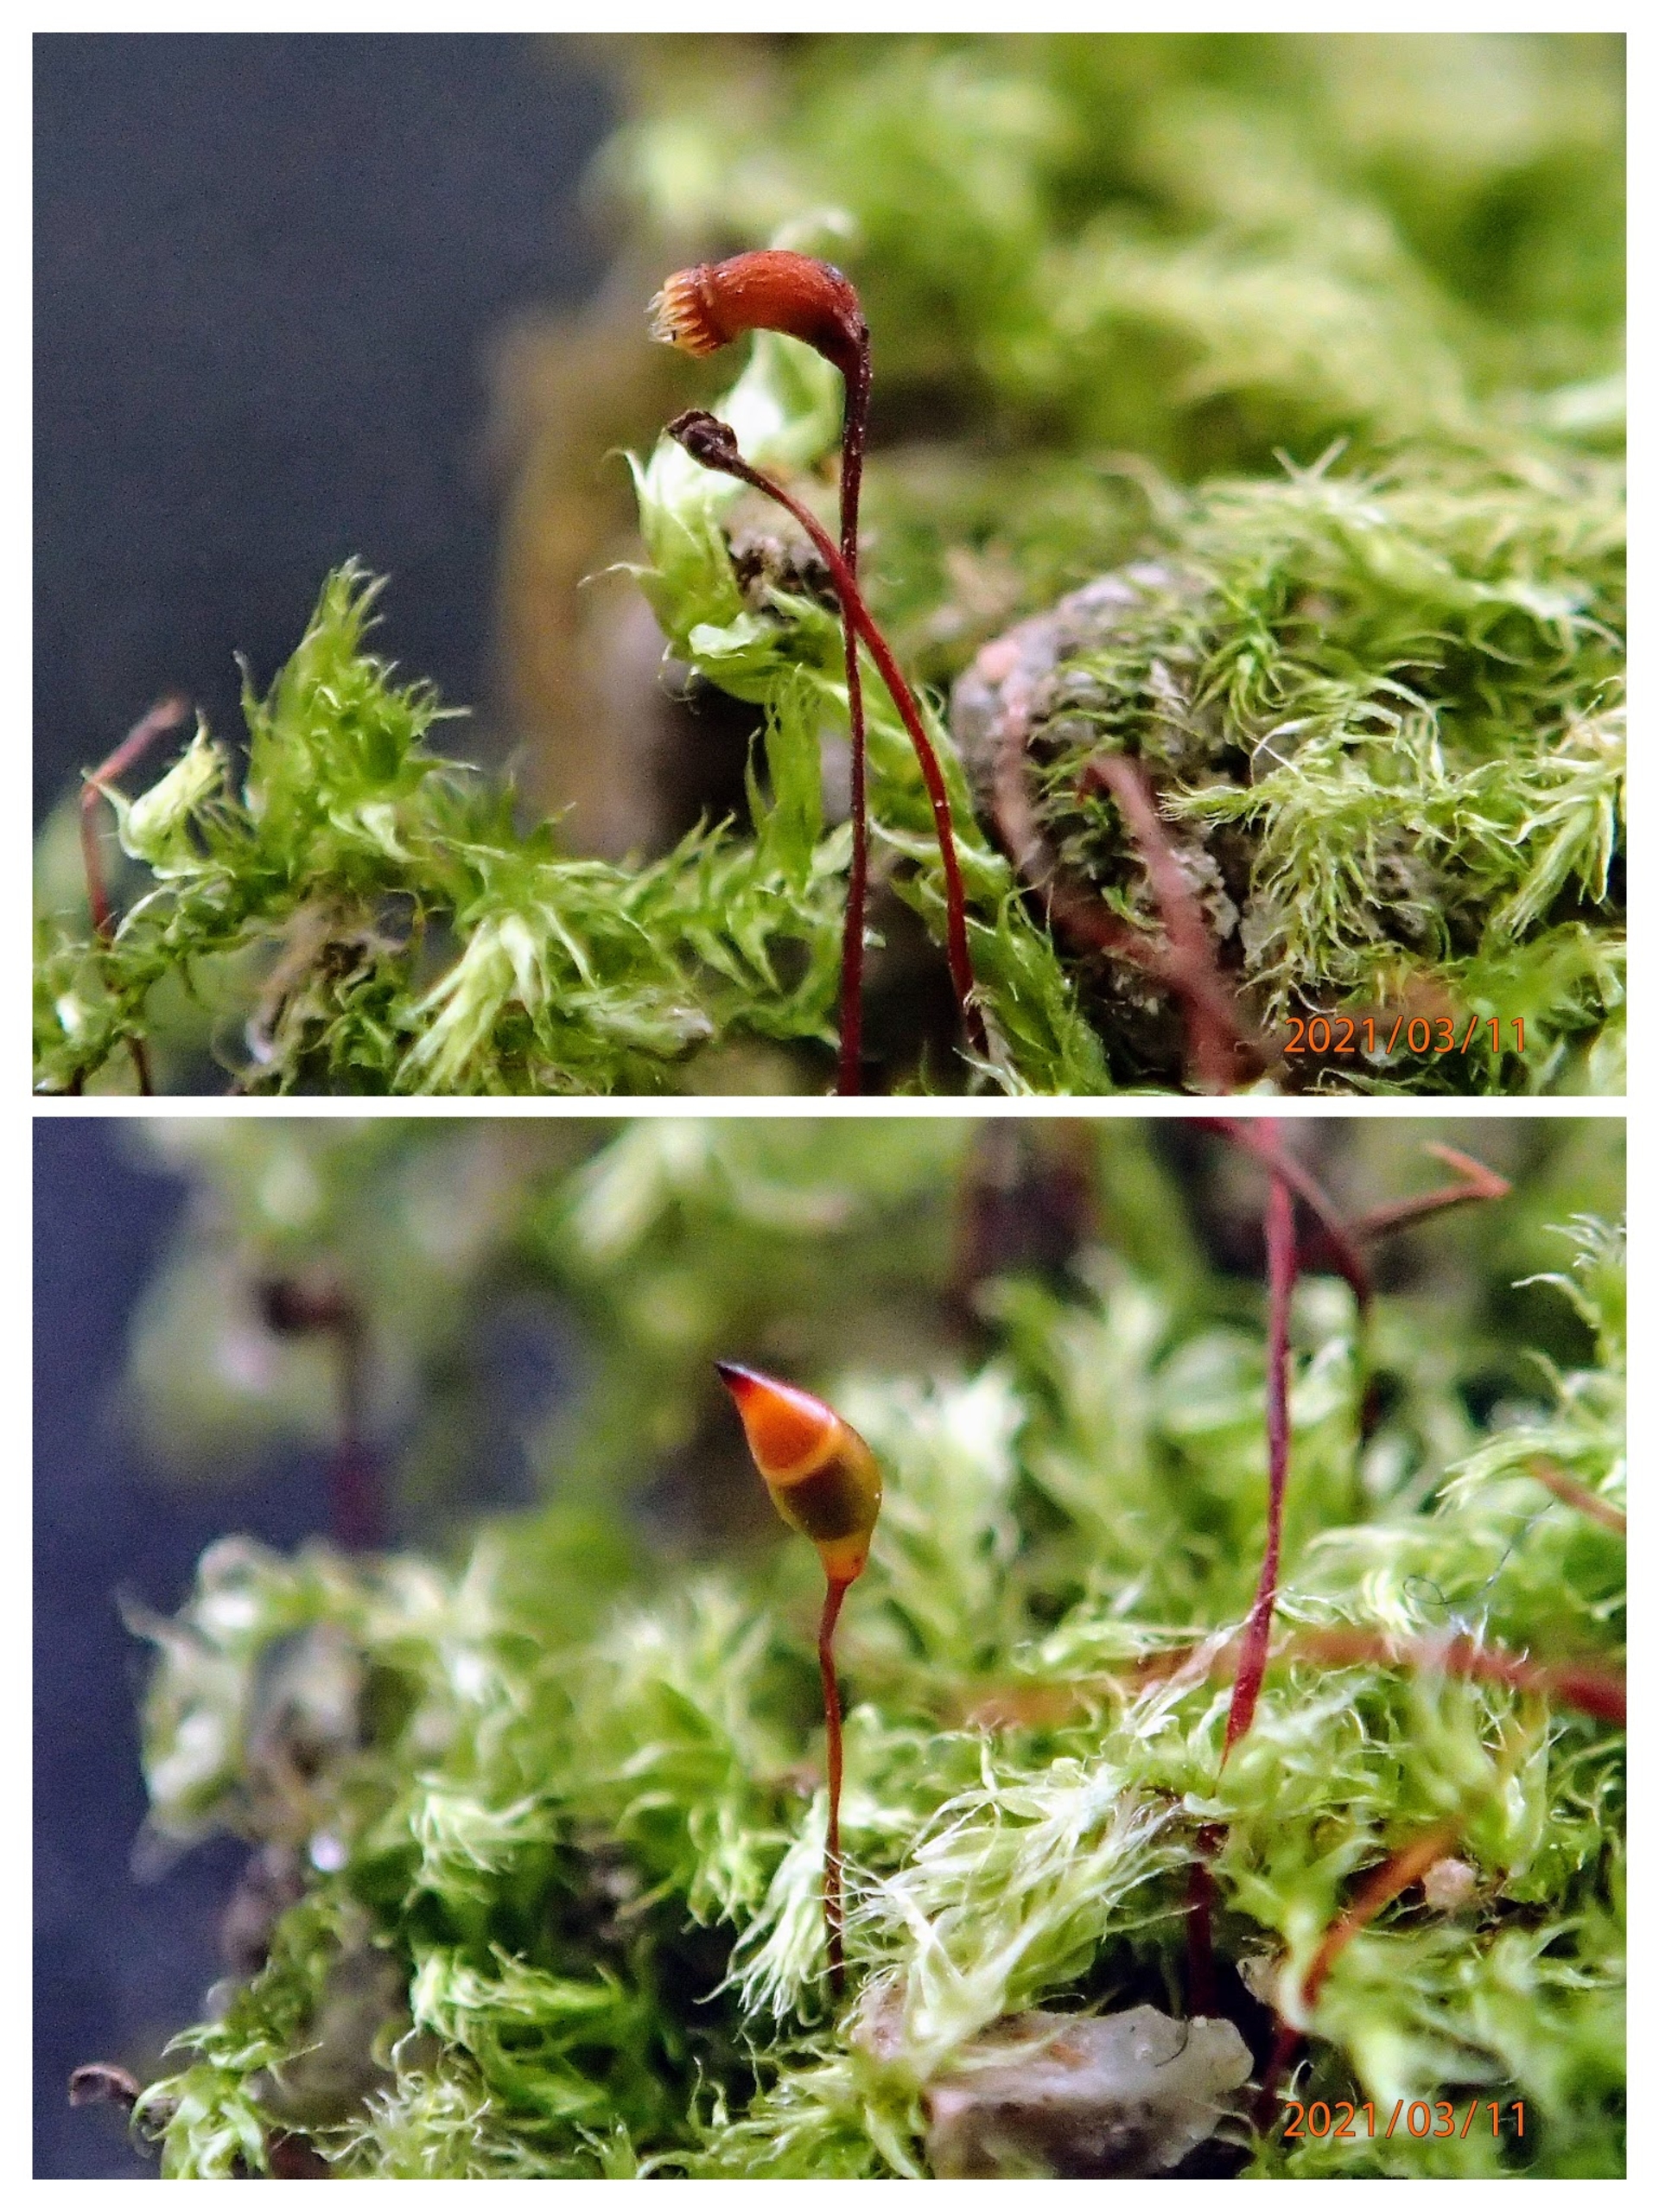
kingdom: Plantae
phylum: Bryophyta
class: Bryopsida
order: Hypnales
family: Brachytheciaceae
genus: Brachytheciastrum
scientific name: Brachytheciastrum velutinum
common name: Fløjls-kortkapsel
